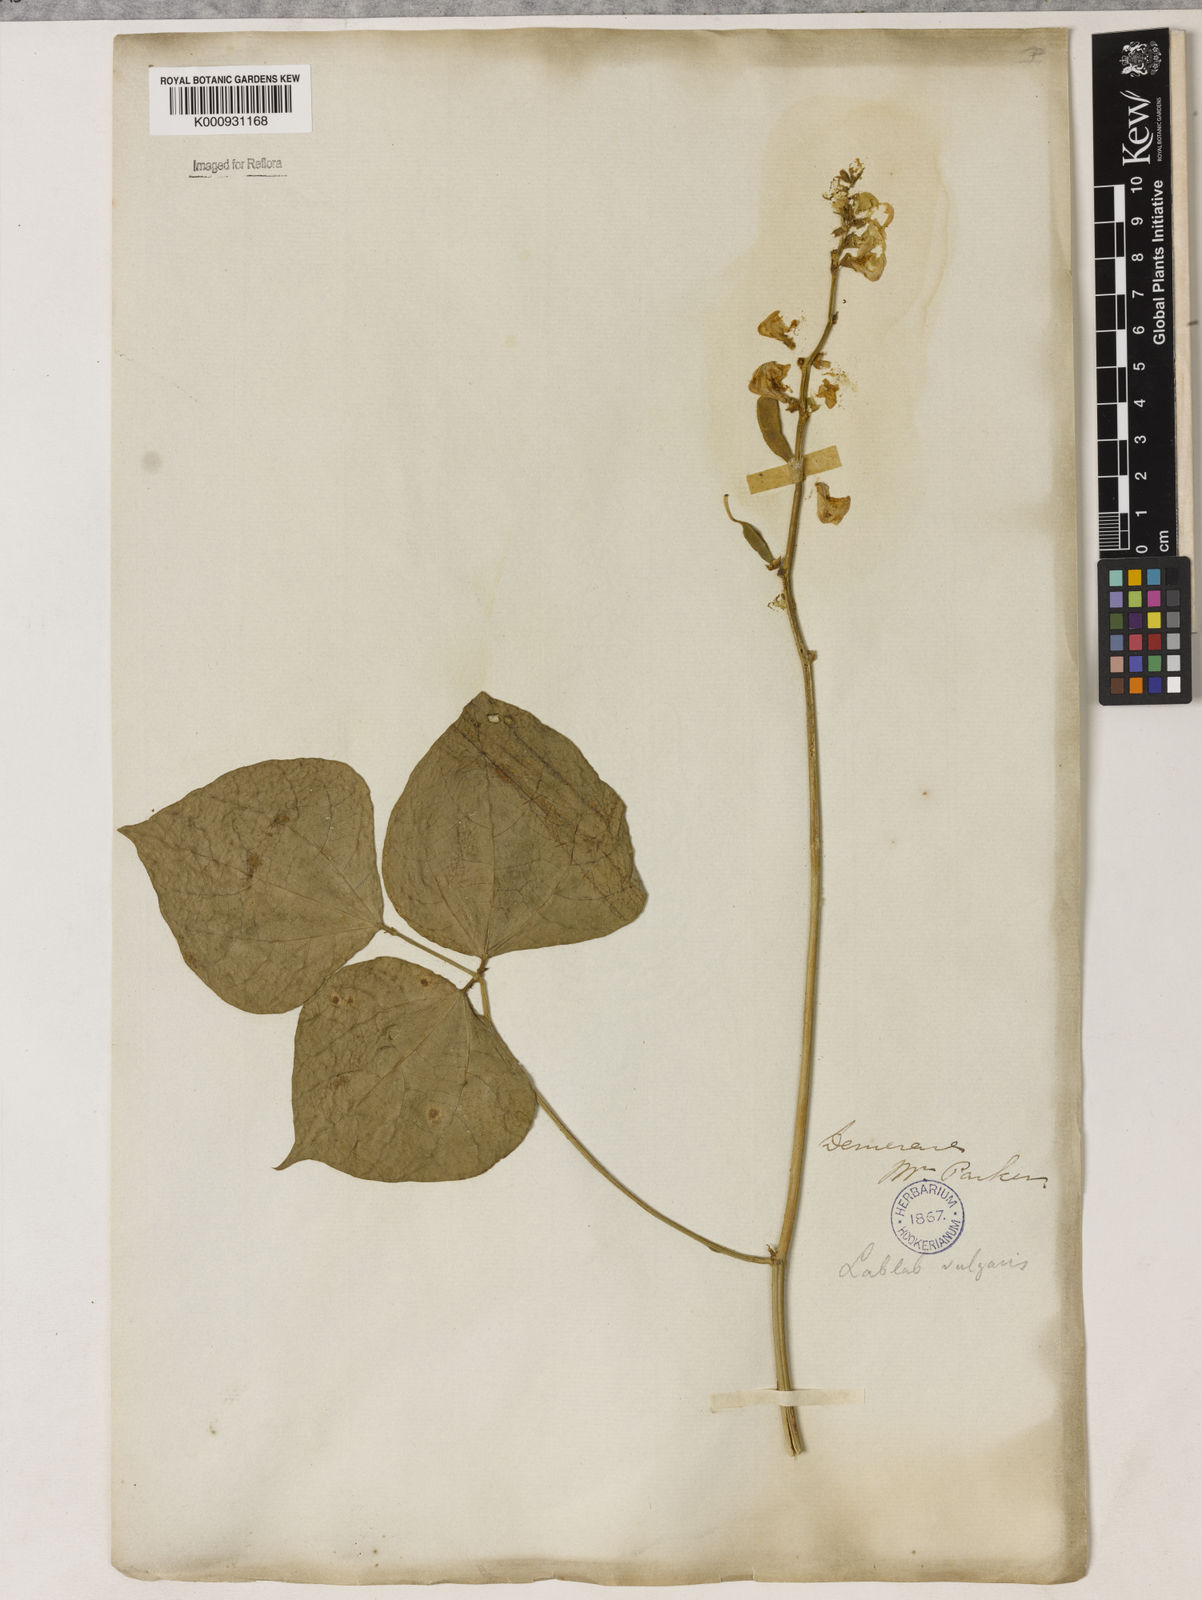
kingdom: Plantae
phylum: Tracheophyta
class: Magnoliopsida
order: Fabales
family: Fabaceae
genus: Lablab
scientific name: Lablab purpureus
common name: Lablab-bean
